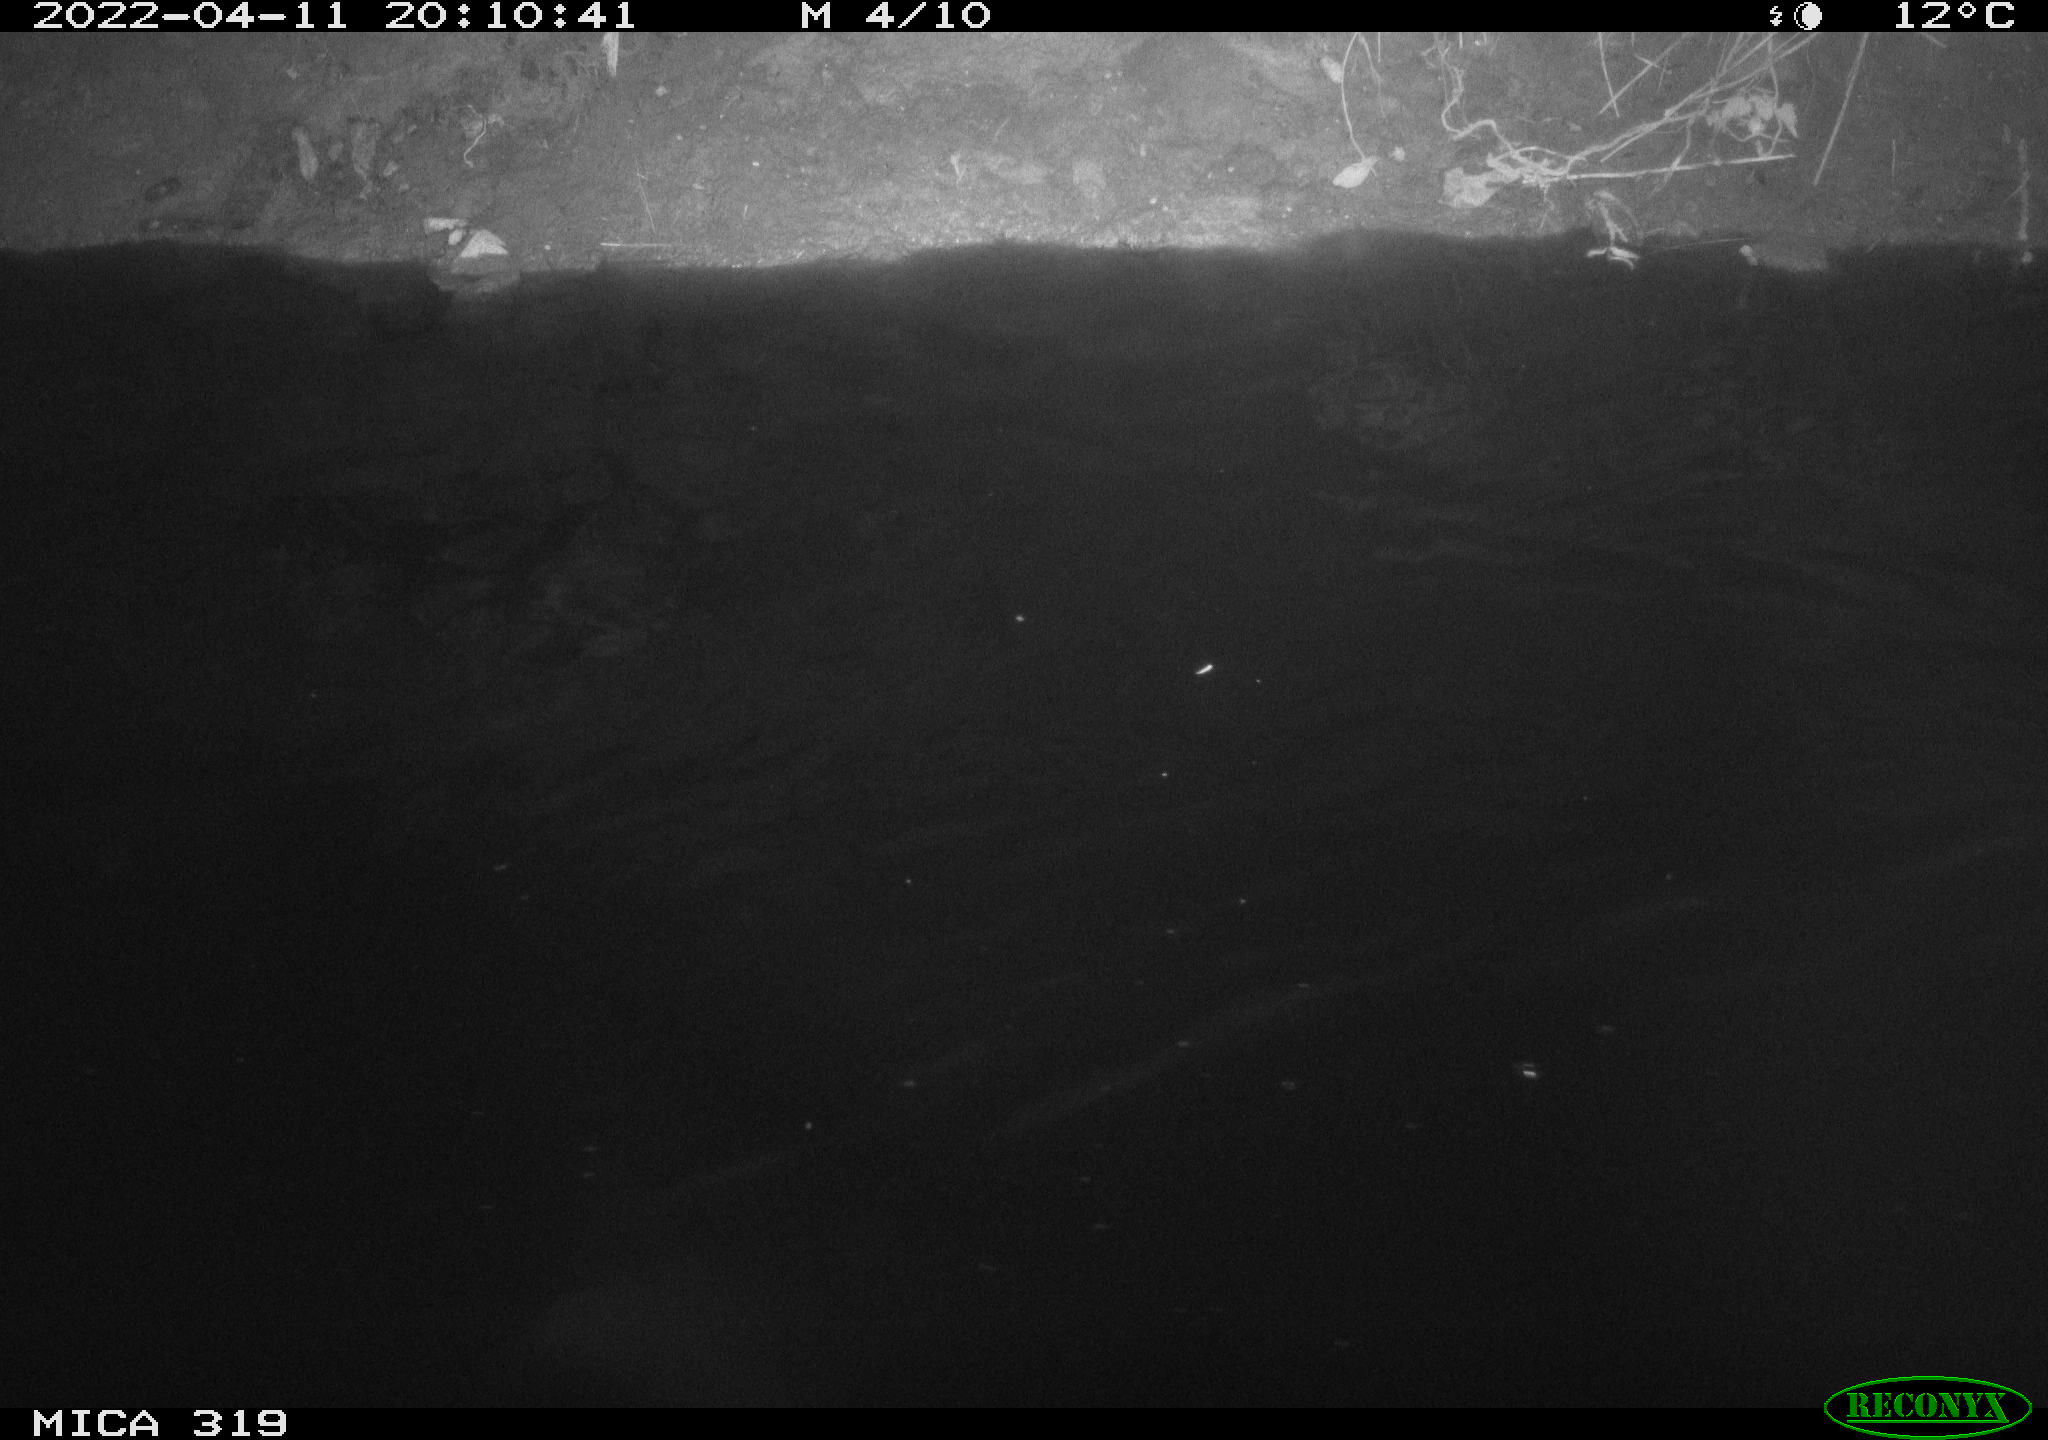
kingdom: Animalia
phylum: Chordata
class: Aves
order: Gruiformes
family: Rallidae
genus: Gallinula
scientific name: Gallinula chloropus
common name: Common moorhen
